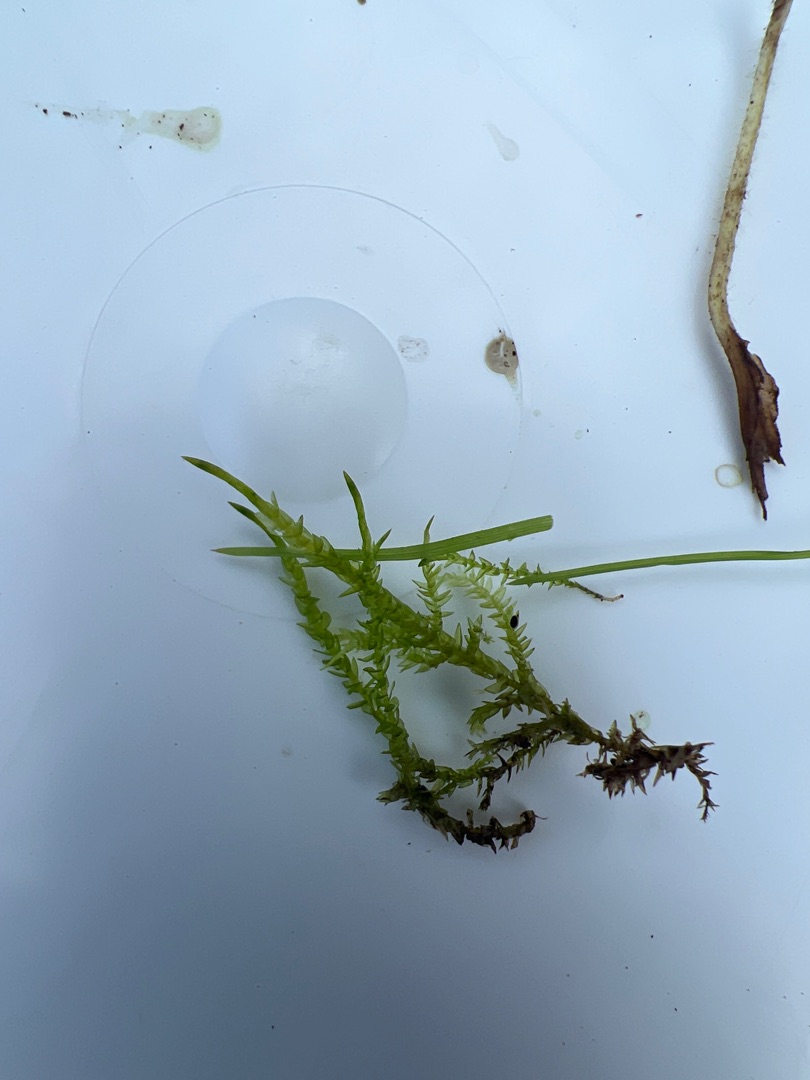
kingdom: Plantae
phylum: Bryophyta
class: Bryopsida
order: Hypnales
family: Pylaisiaceae
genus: Calliergonella
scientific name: Calliergonella cuspidata
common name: Spids spydmos
